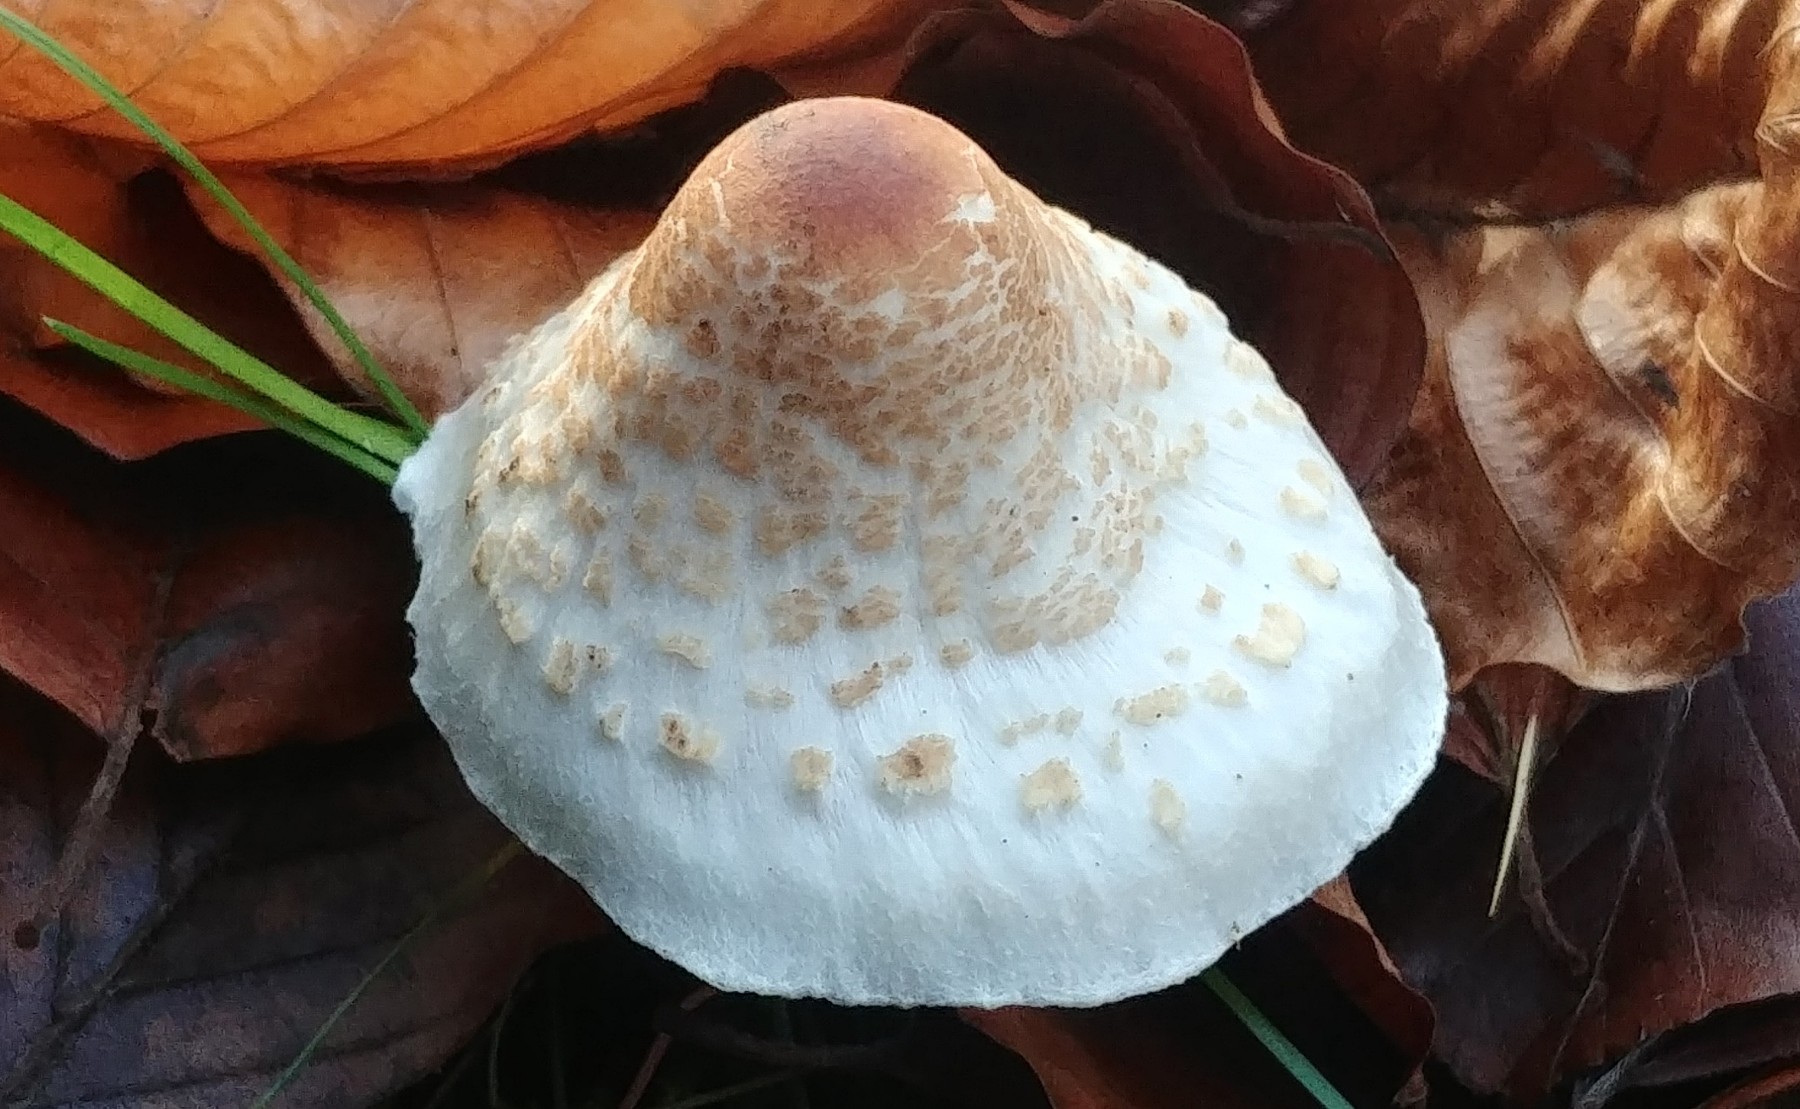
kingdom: Fungi
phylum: Basidiomycota
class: Agaricomycetes
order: Agaricales
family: Agaricaceae
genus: Lepiota
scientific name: Lepiota cristata
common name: stinkende parasolhat
